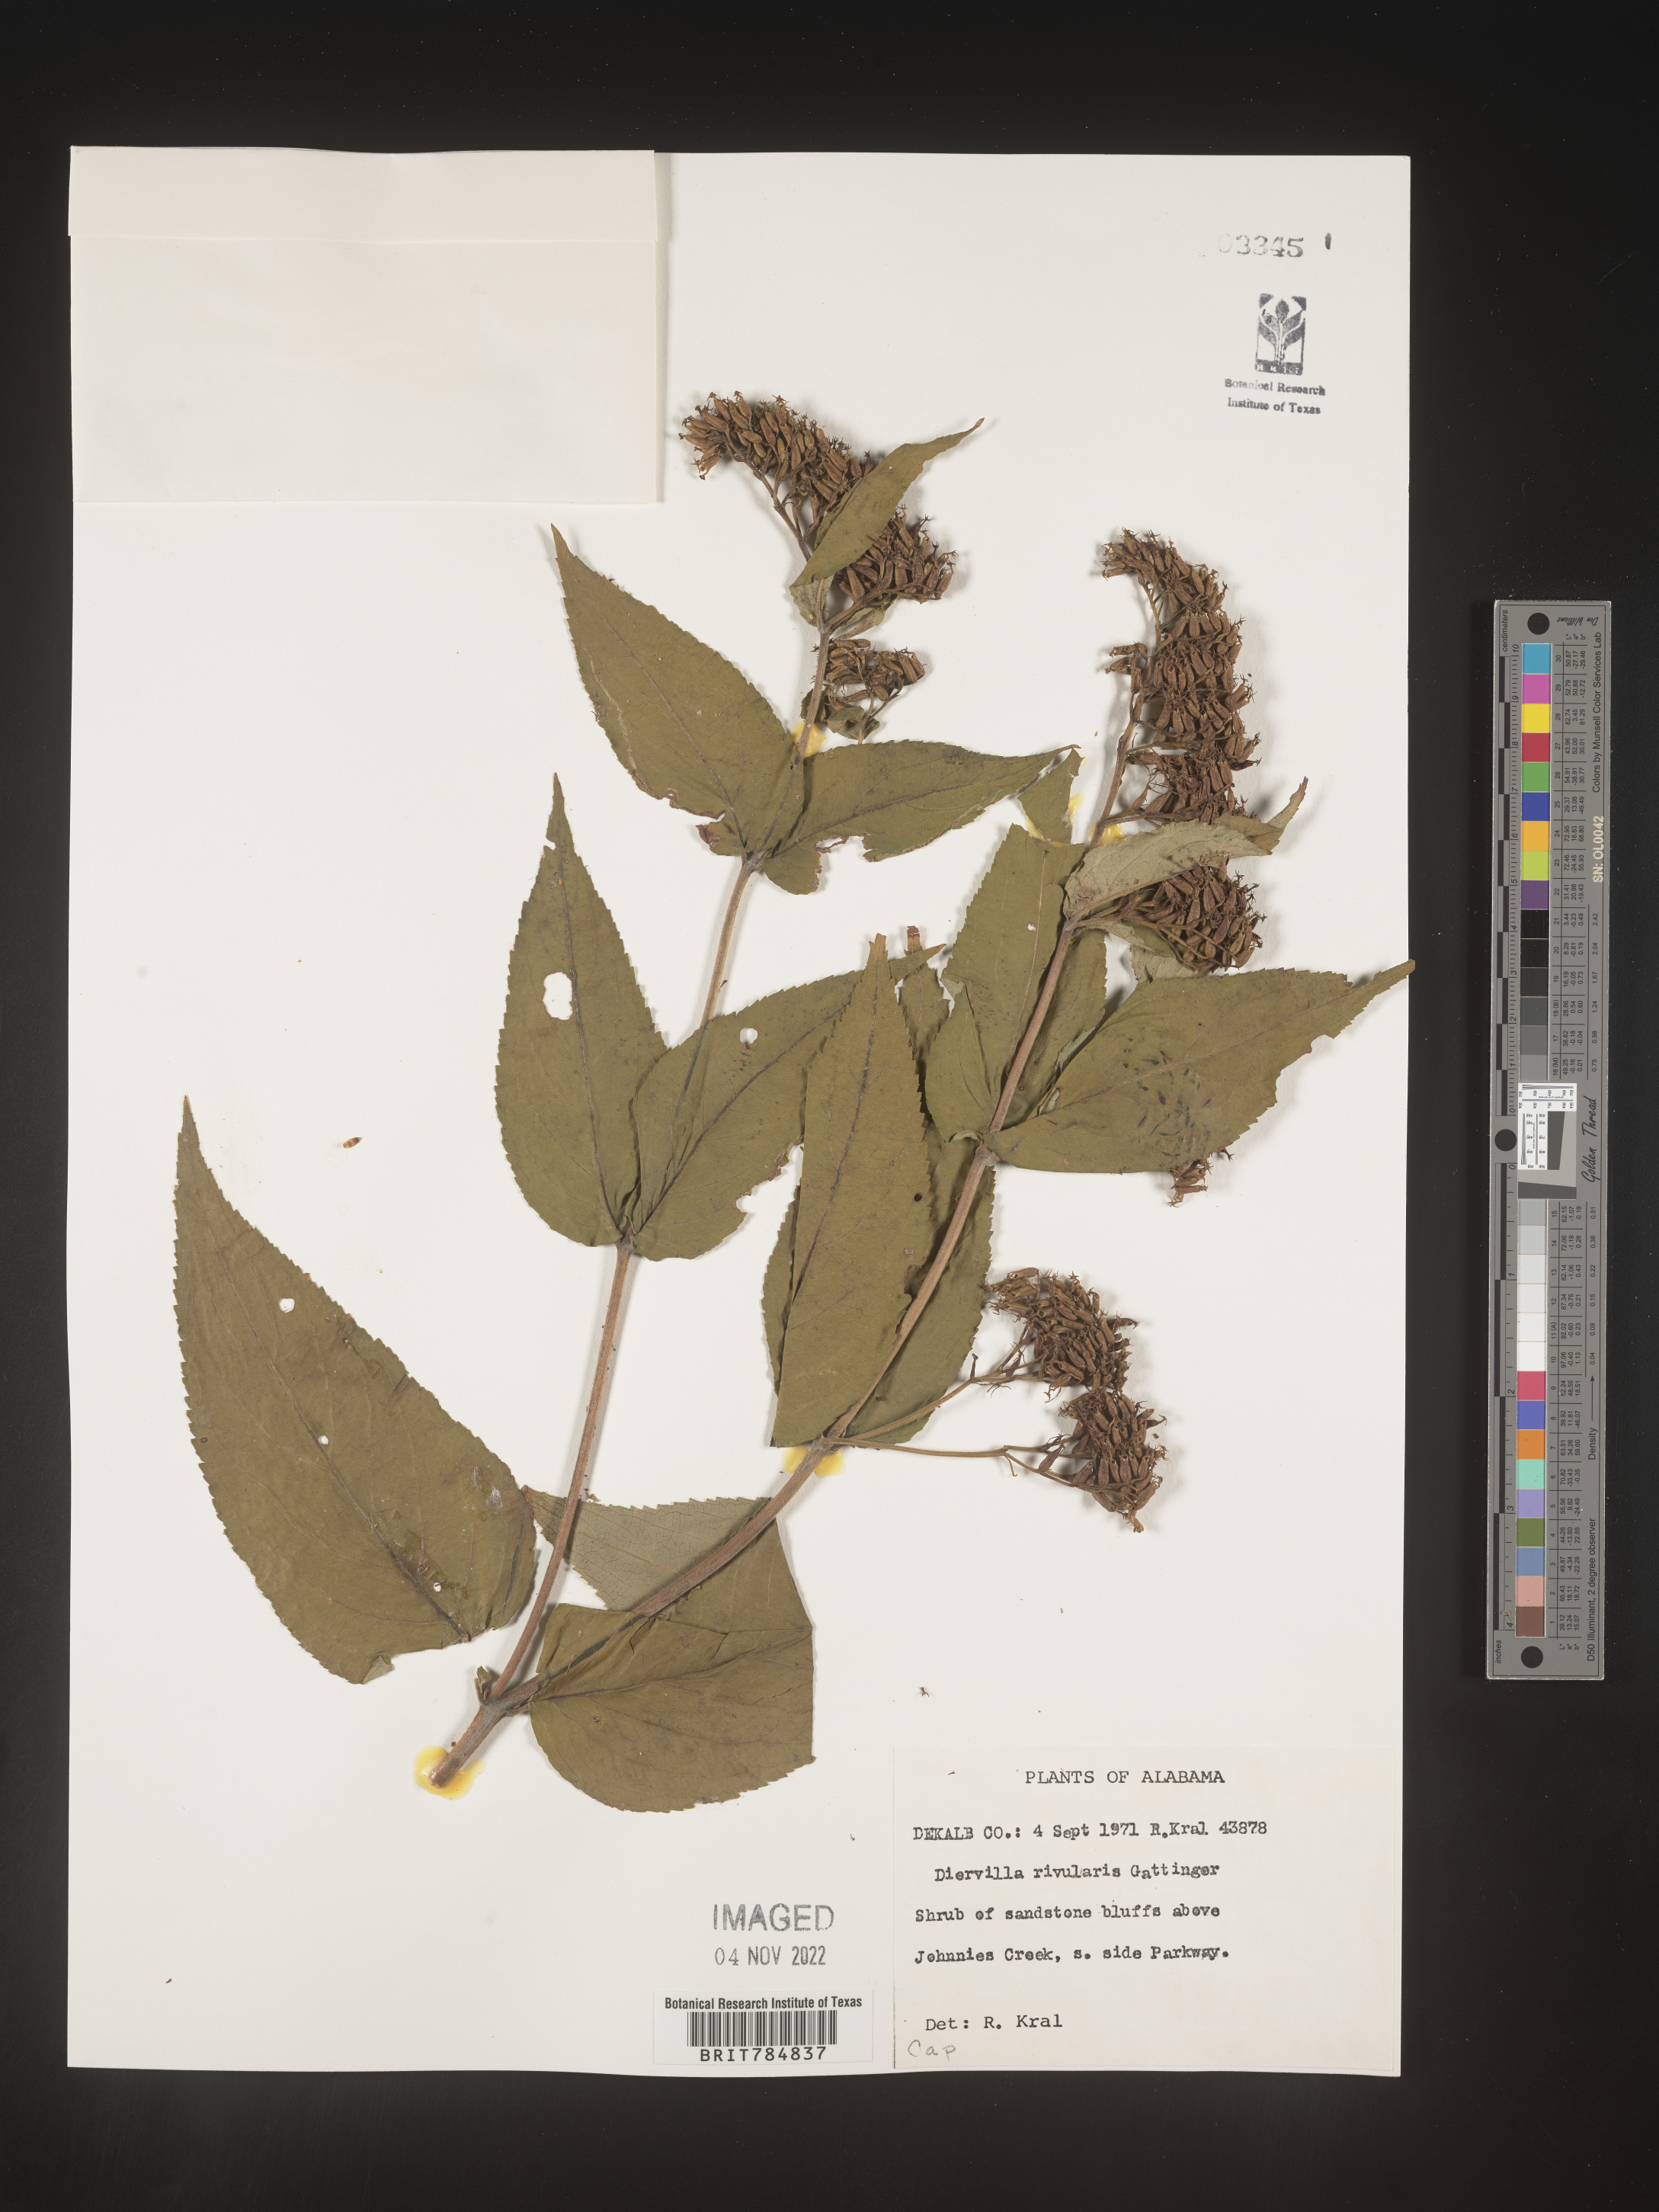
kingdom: Plantae
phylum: Tracheophyta
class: Magnoliopsida
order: Dipsacales
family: Caprifoliaceae
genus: Diervilla
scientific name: Diervilla rivularis
